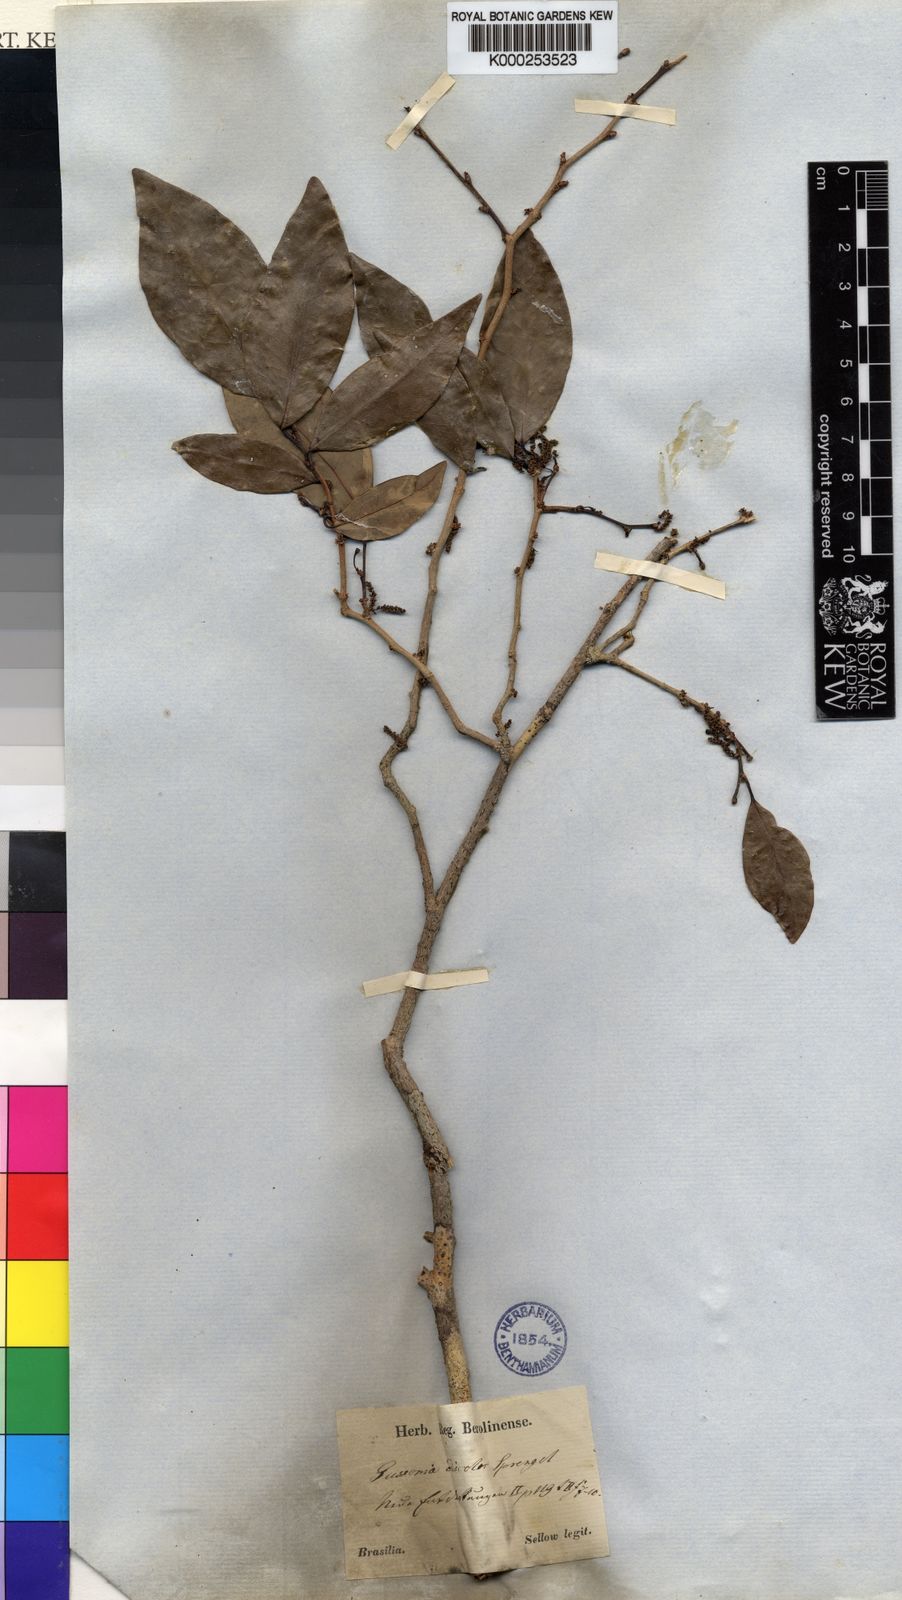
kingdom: Plantae
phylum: Tracheophyta
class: Magnoliopsida
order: Malpighiales
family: Euphorbiaceae
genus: Gymnanthes
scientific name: Gymnanthes
